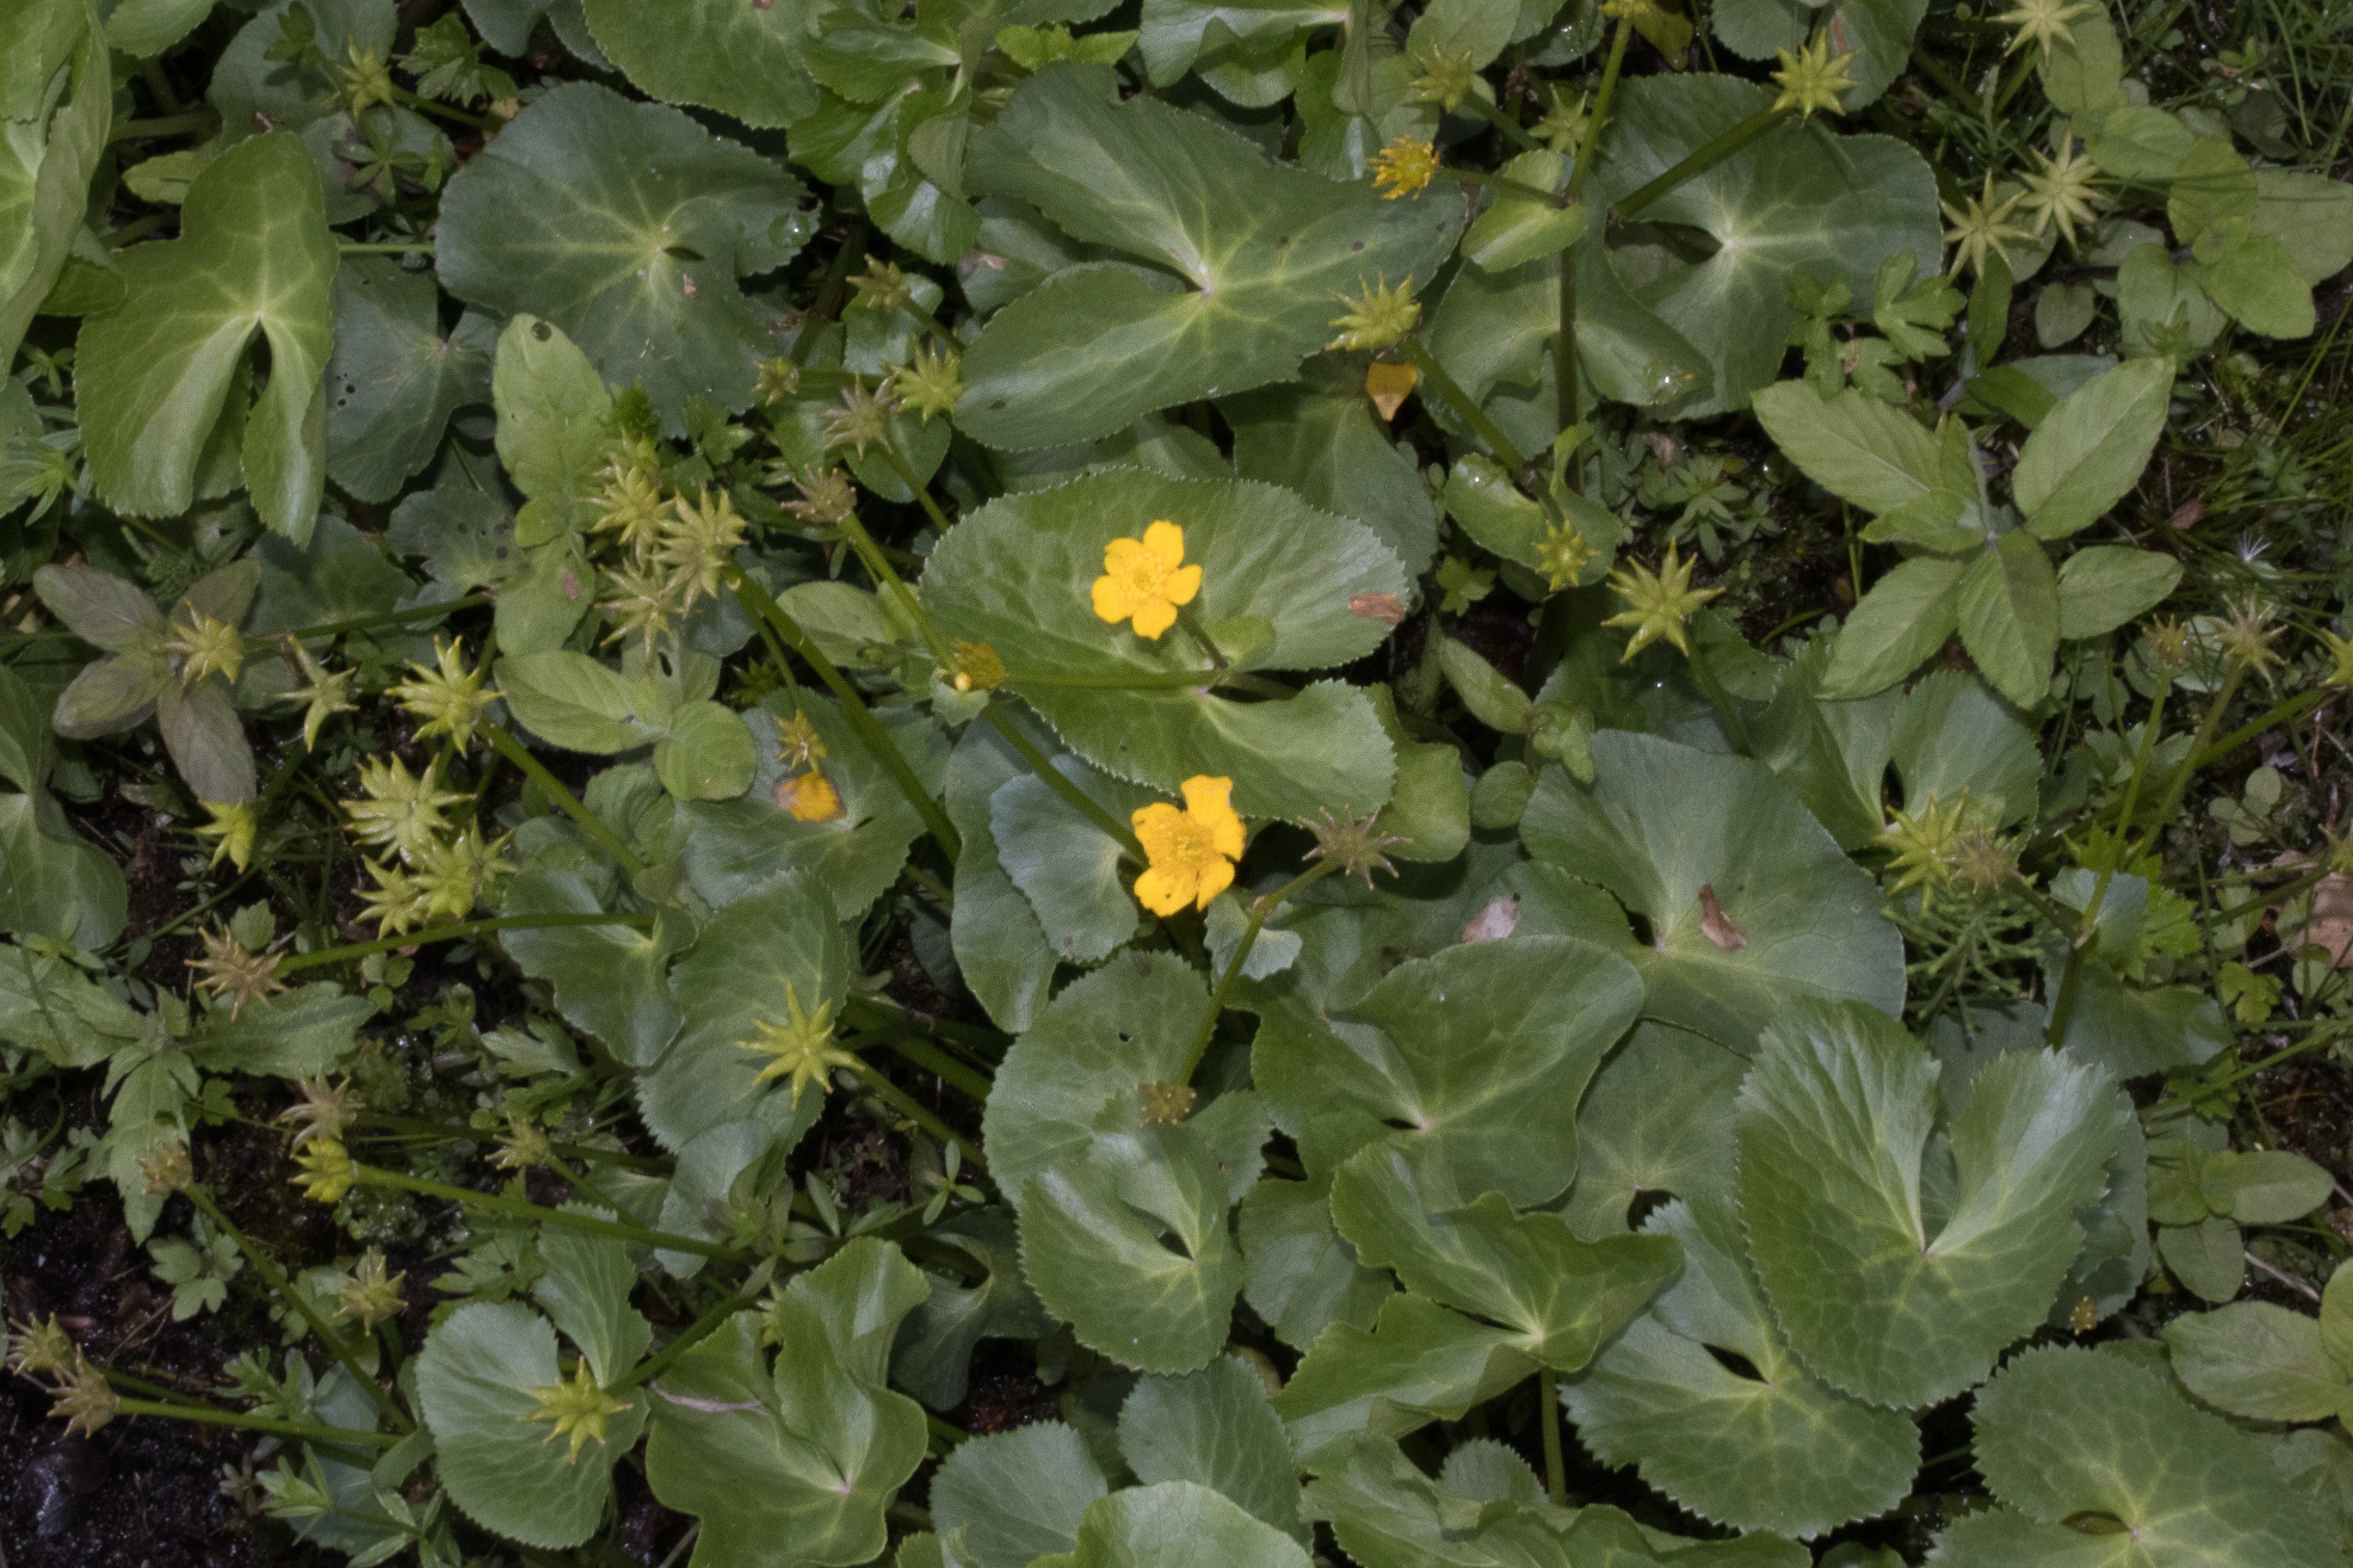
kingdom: Plantae
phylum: Tracheophyta
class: Magnoliopsida
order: Ranunculales
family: Ranunculaceae
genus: Caltha
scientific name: Caltha palustris
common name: Eng-kabbeleje
